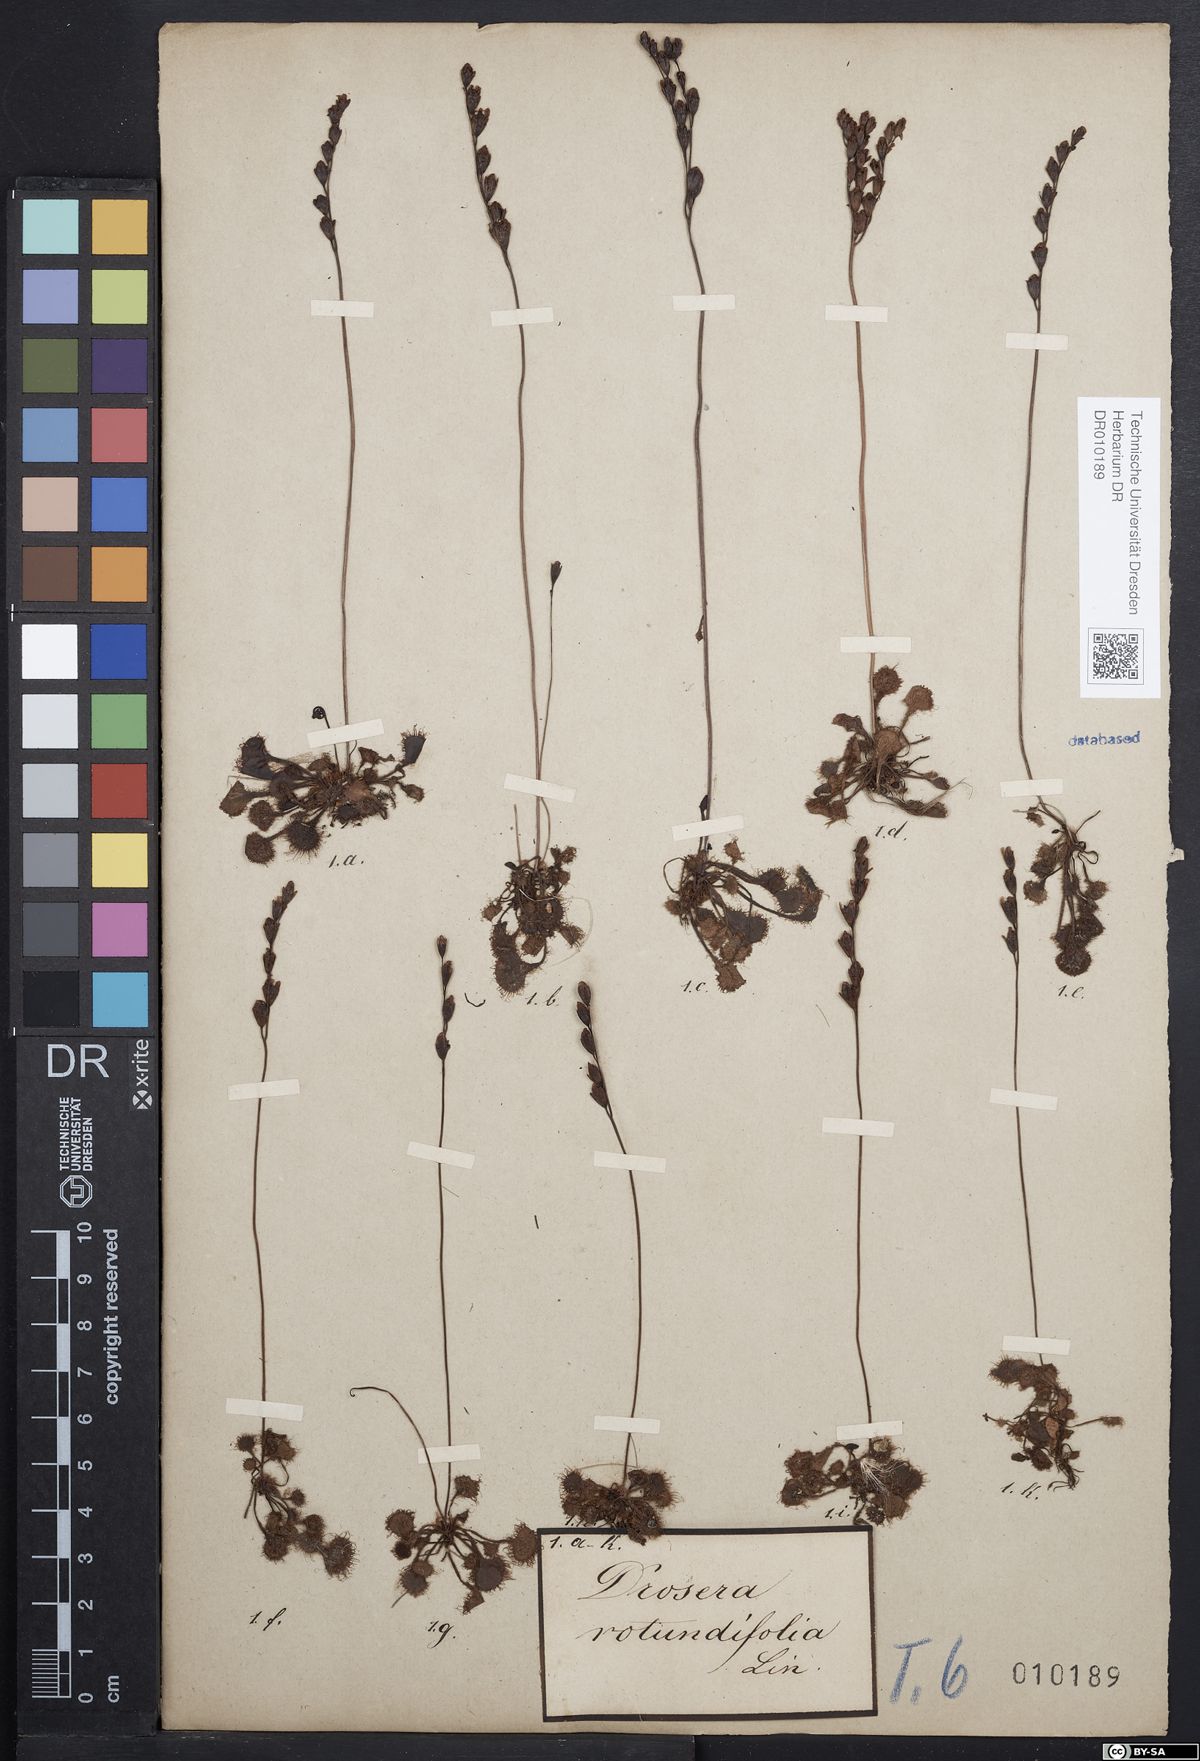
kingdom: Plantae
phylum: Tracheophyta
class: Magnoliopsida
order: Caryophyllales
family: Droseraceae
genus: Drosera
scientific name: Drosera rotundifolia
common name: Round-leaved sundew
